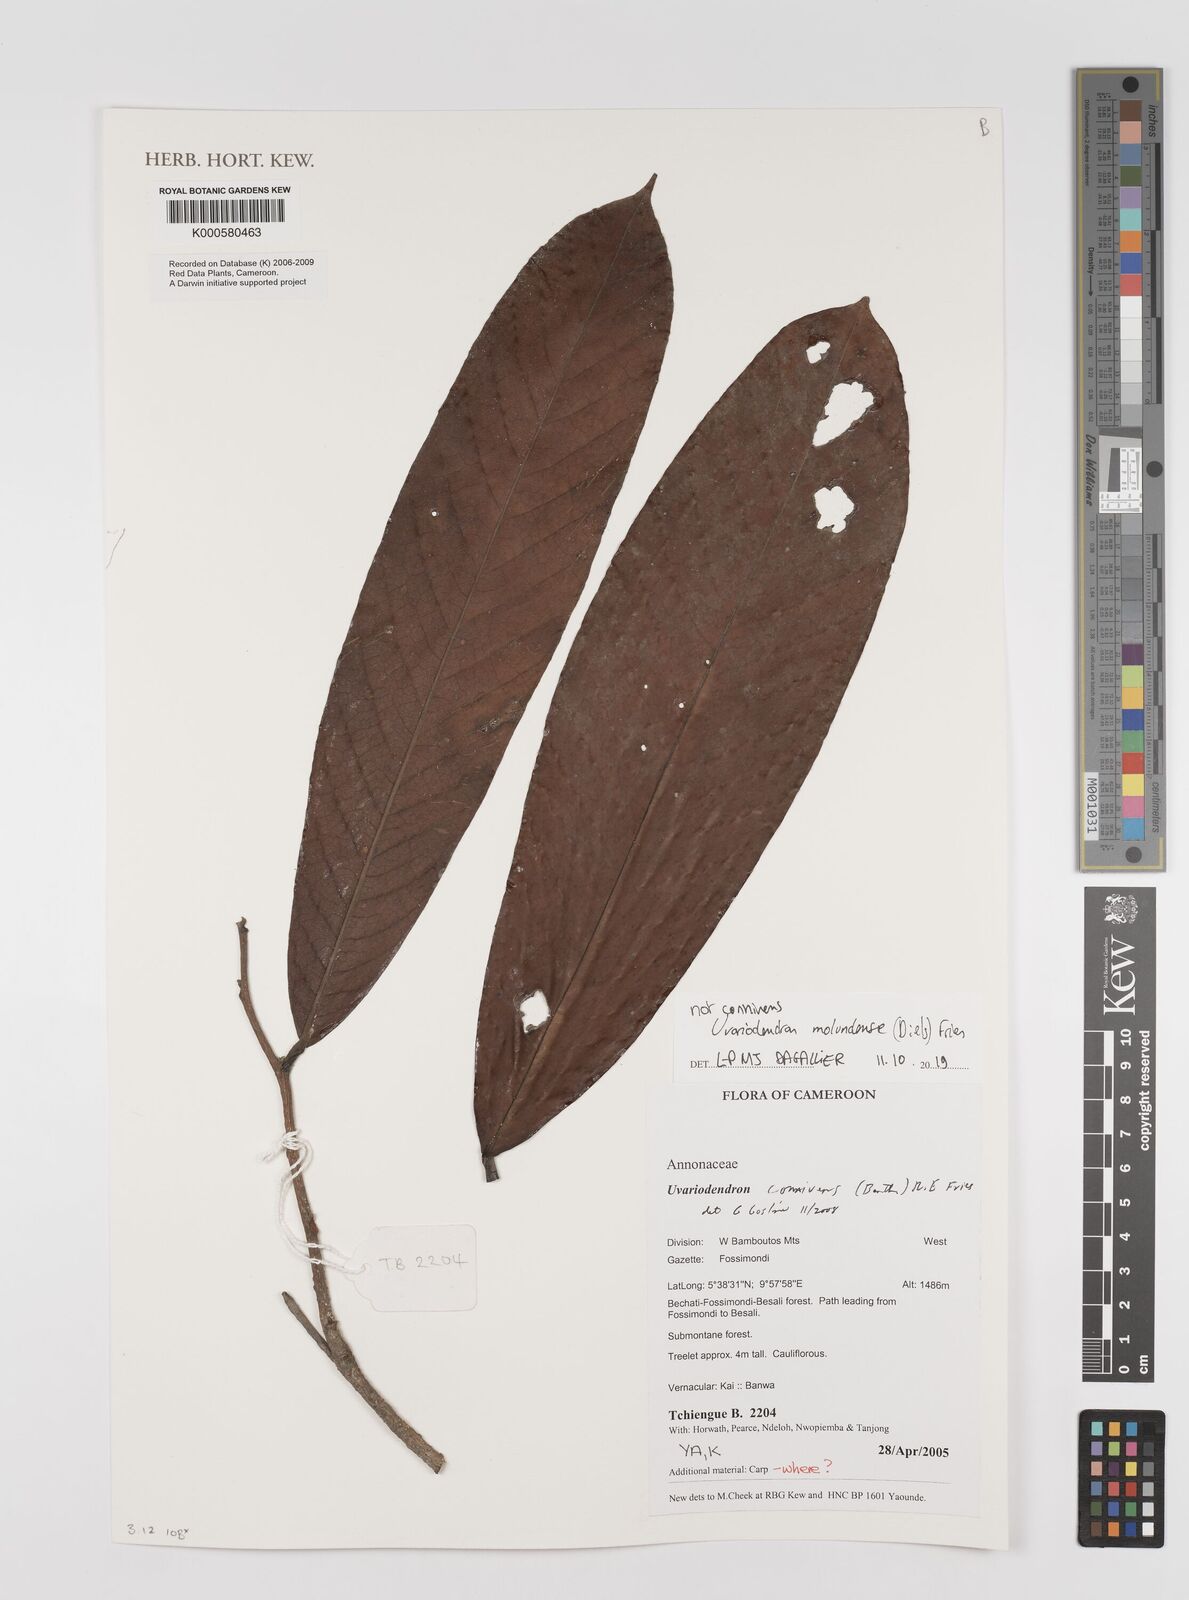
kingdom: Plantae
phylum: Tracheophyta
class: Magnoliopsida
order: Magnoliales
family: Annonaceae
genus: Uvariodendron
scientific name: Uvariodendron connivens
